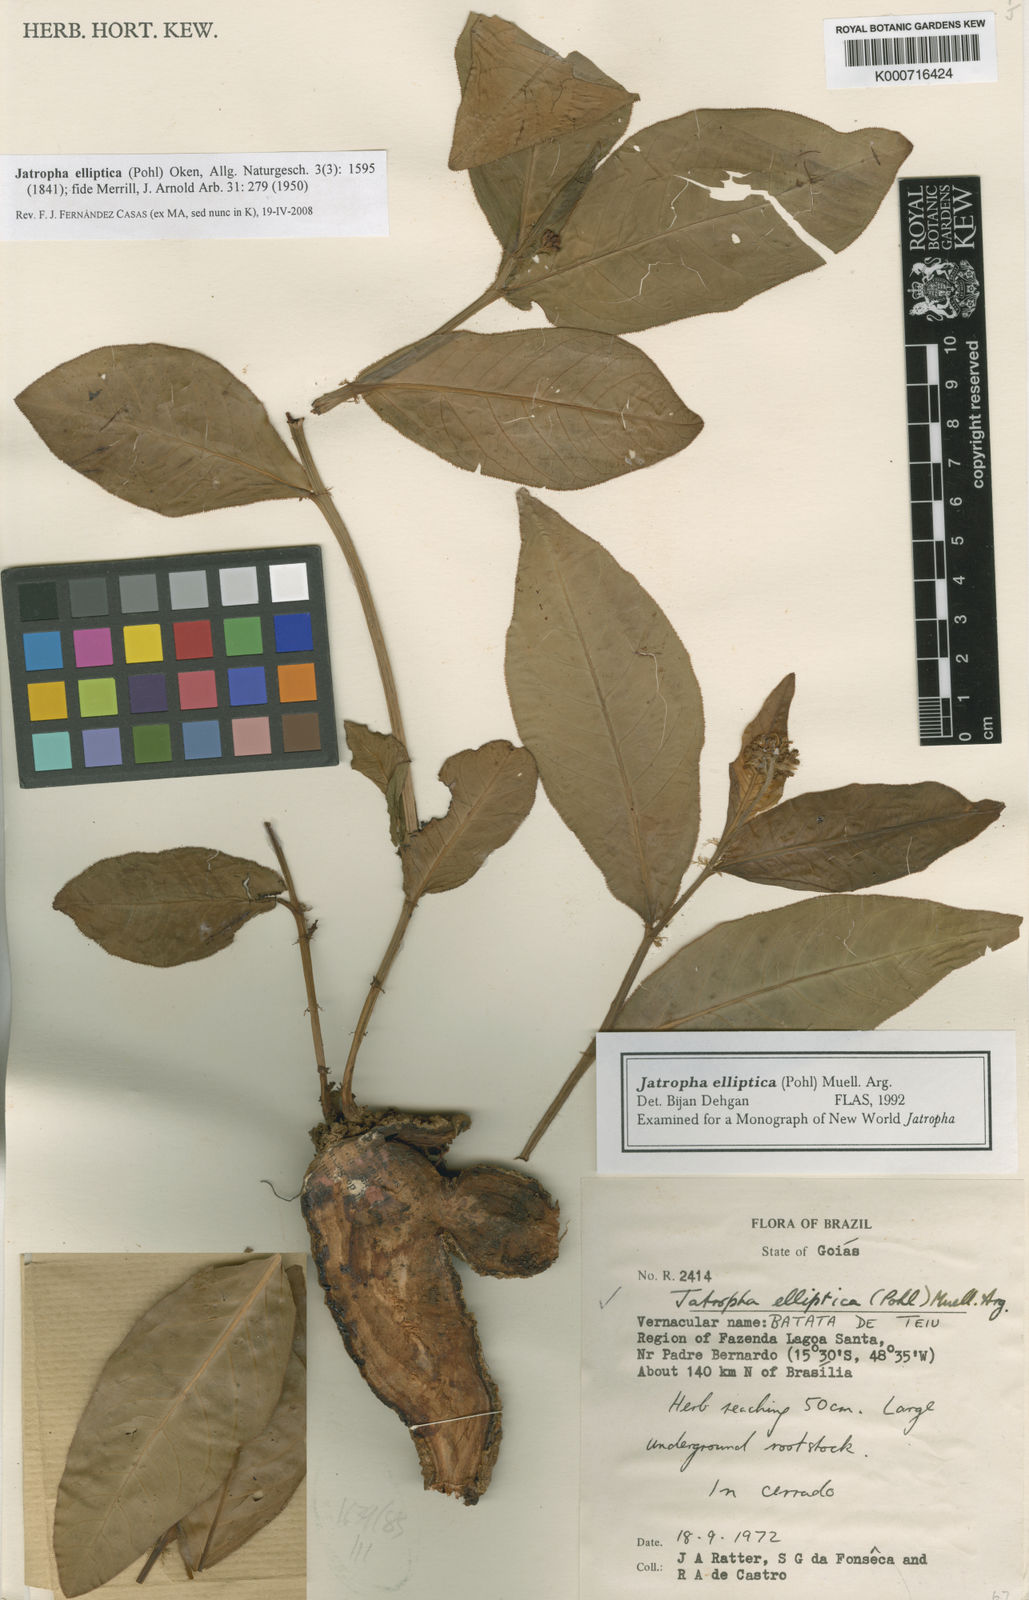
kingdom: Plantae
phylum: Tracheophyta
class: Magnoliopsida
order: Malpighiales
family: Euphorbiaceae
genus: Jatropha
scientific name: Jatropha elliptica
